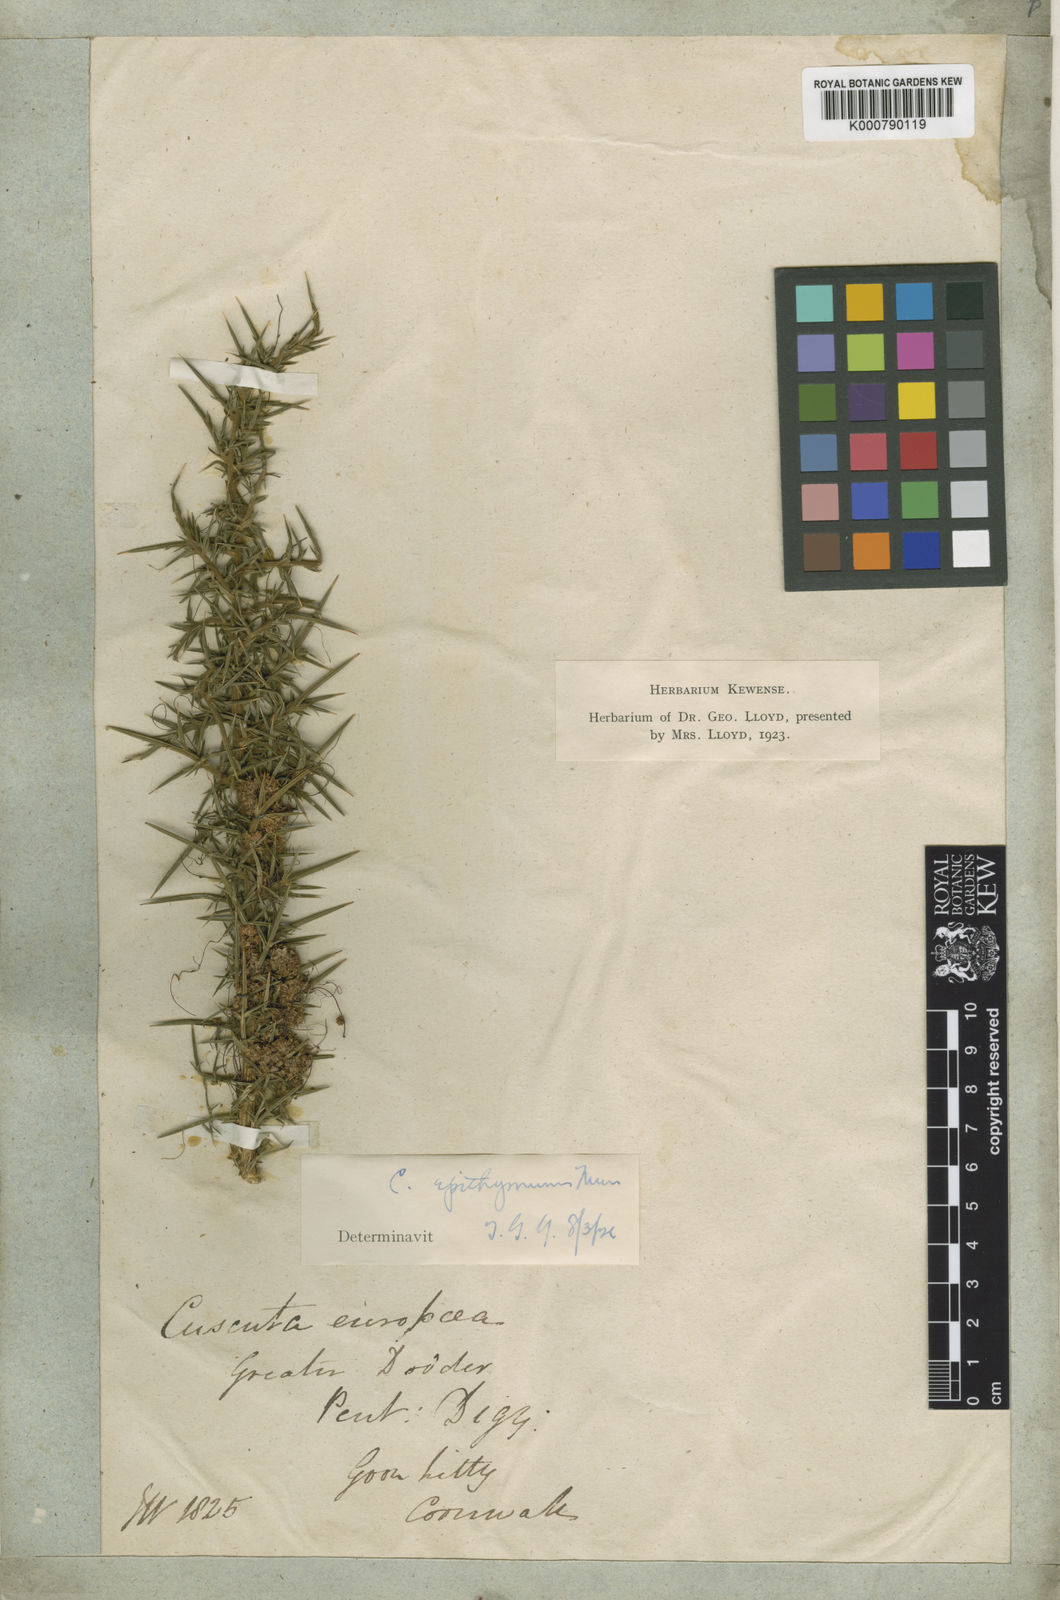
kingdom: Plantae
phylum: Tracheophyta
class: Magnoliopsida
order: Solanales
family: Convolvulaceae
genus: Cuscuta
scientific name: Cuscuta epithymum
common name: Clover dodder
